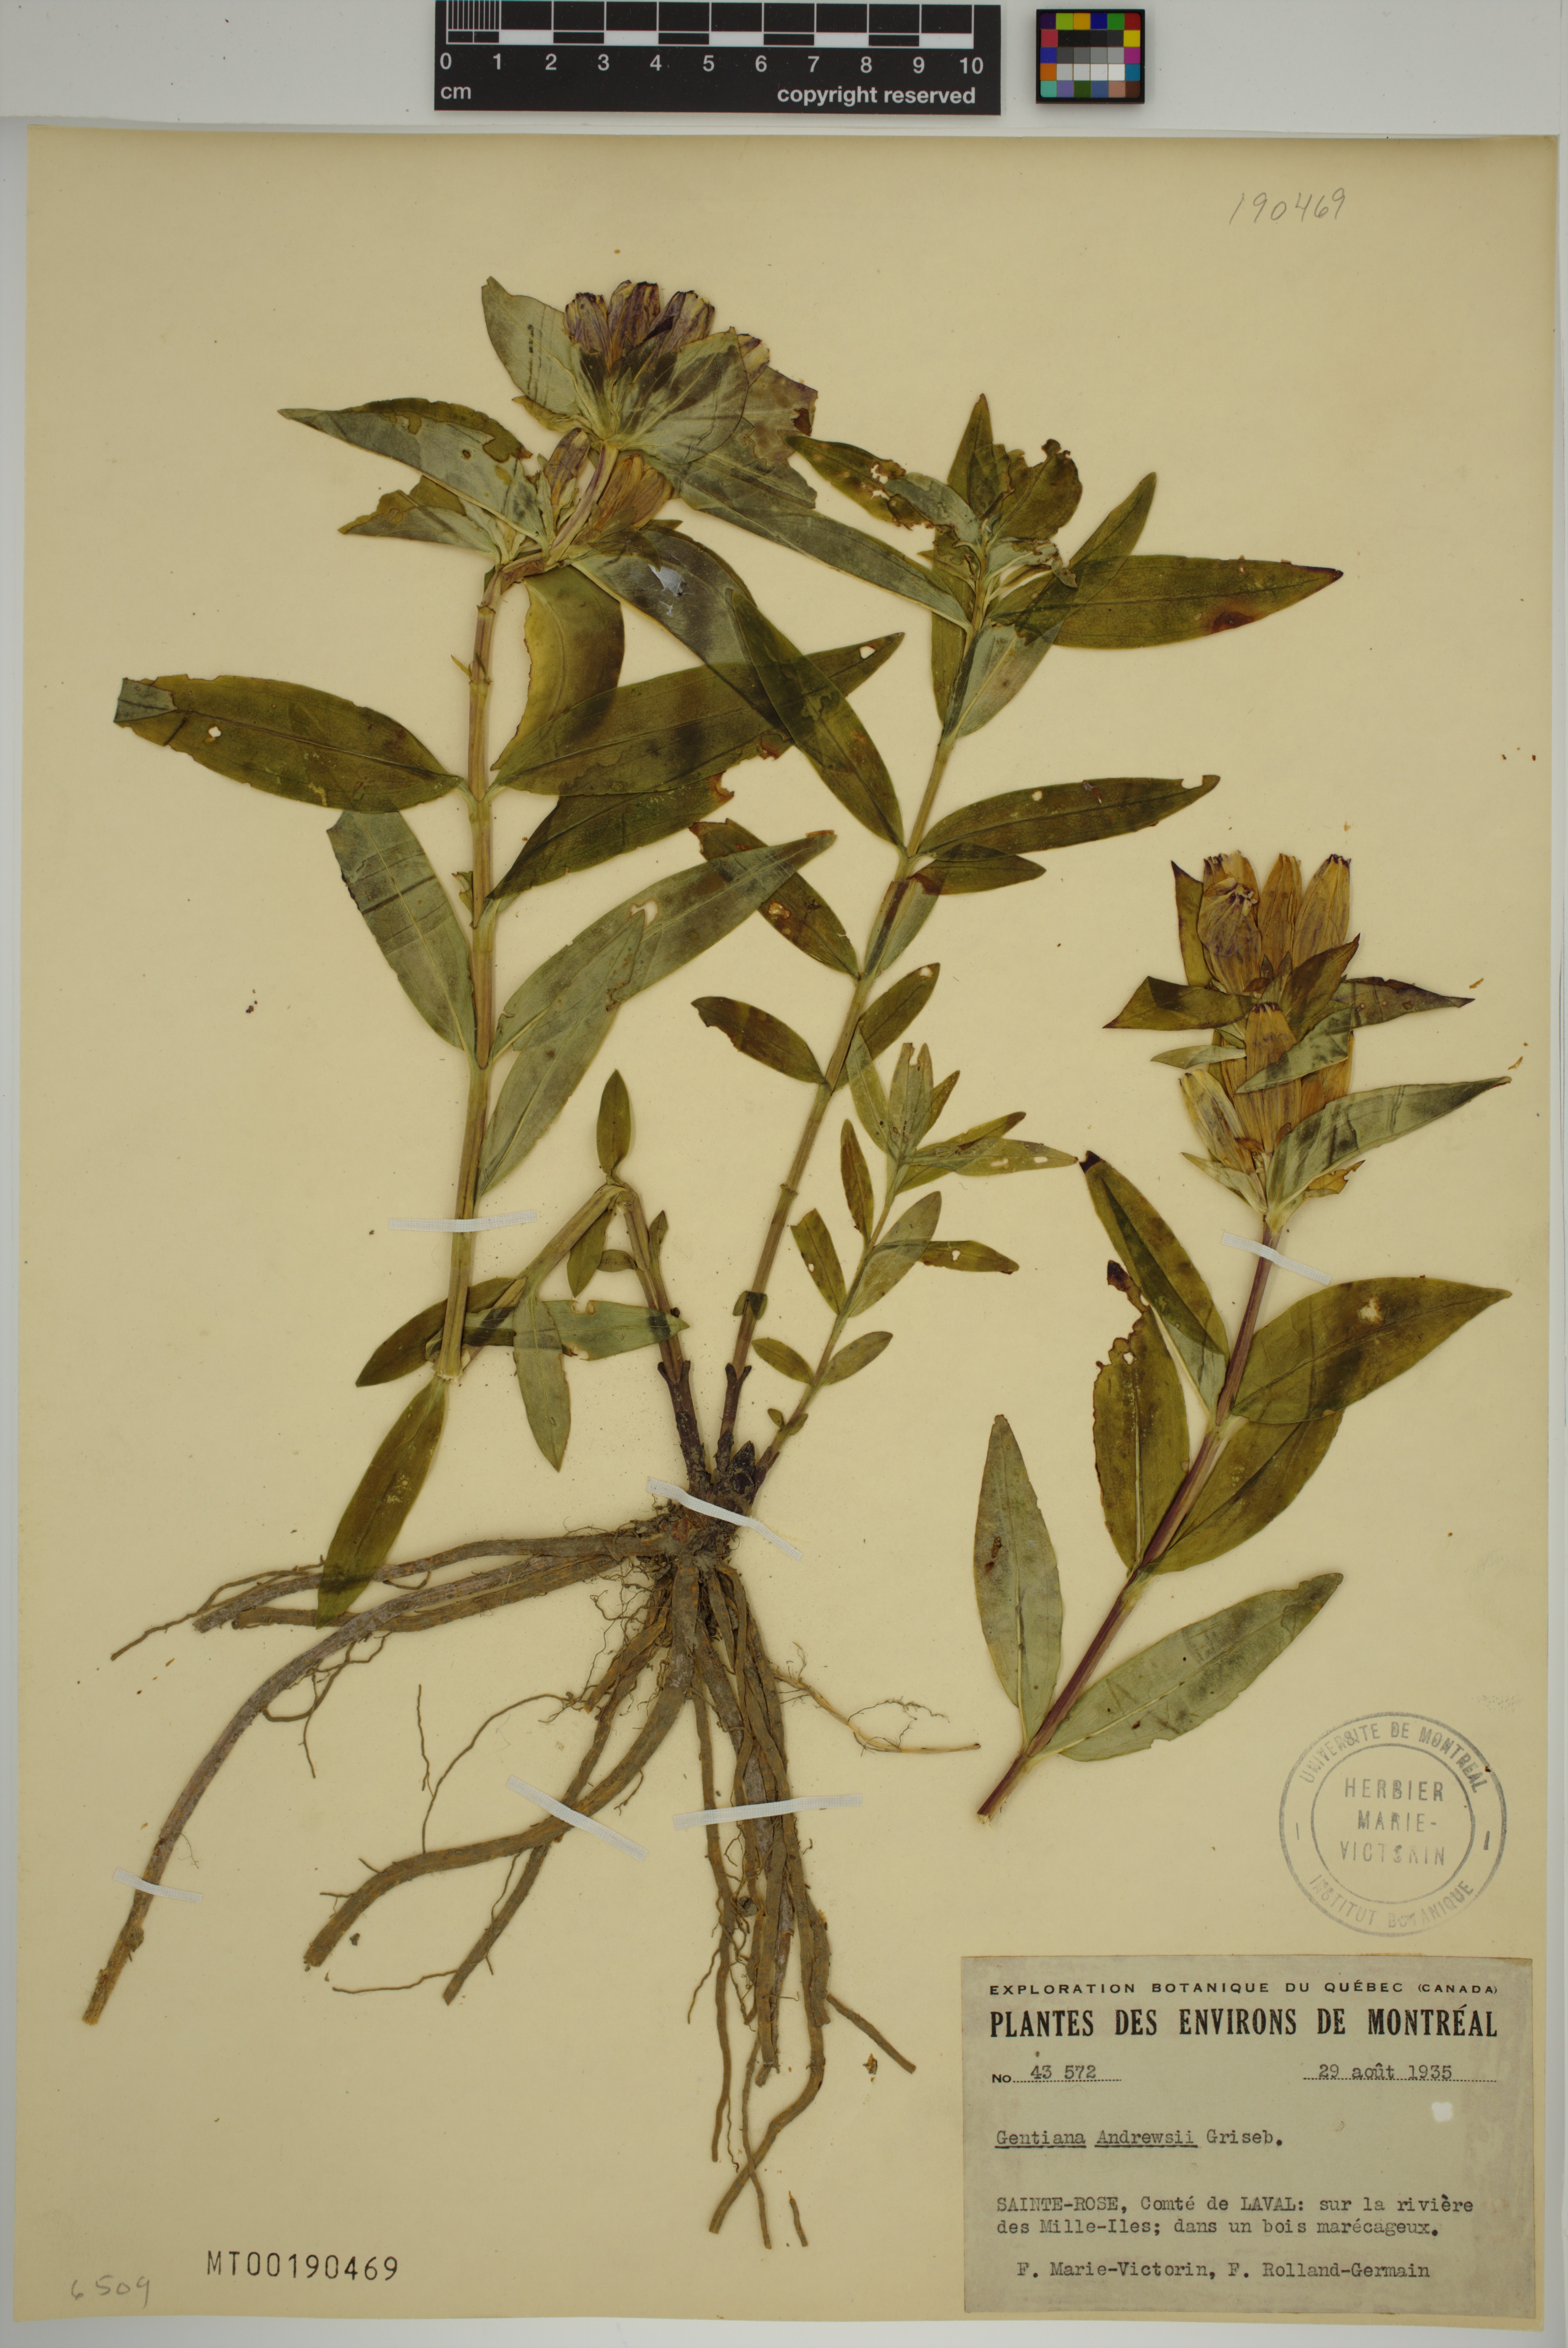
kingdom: Plantae
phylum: Tracheophyta
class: Magnoliopsida
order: Gentianales
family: Gentianaceae
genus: Gentiana
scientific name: Gentiana andrewsii
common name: Bottle gentian
